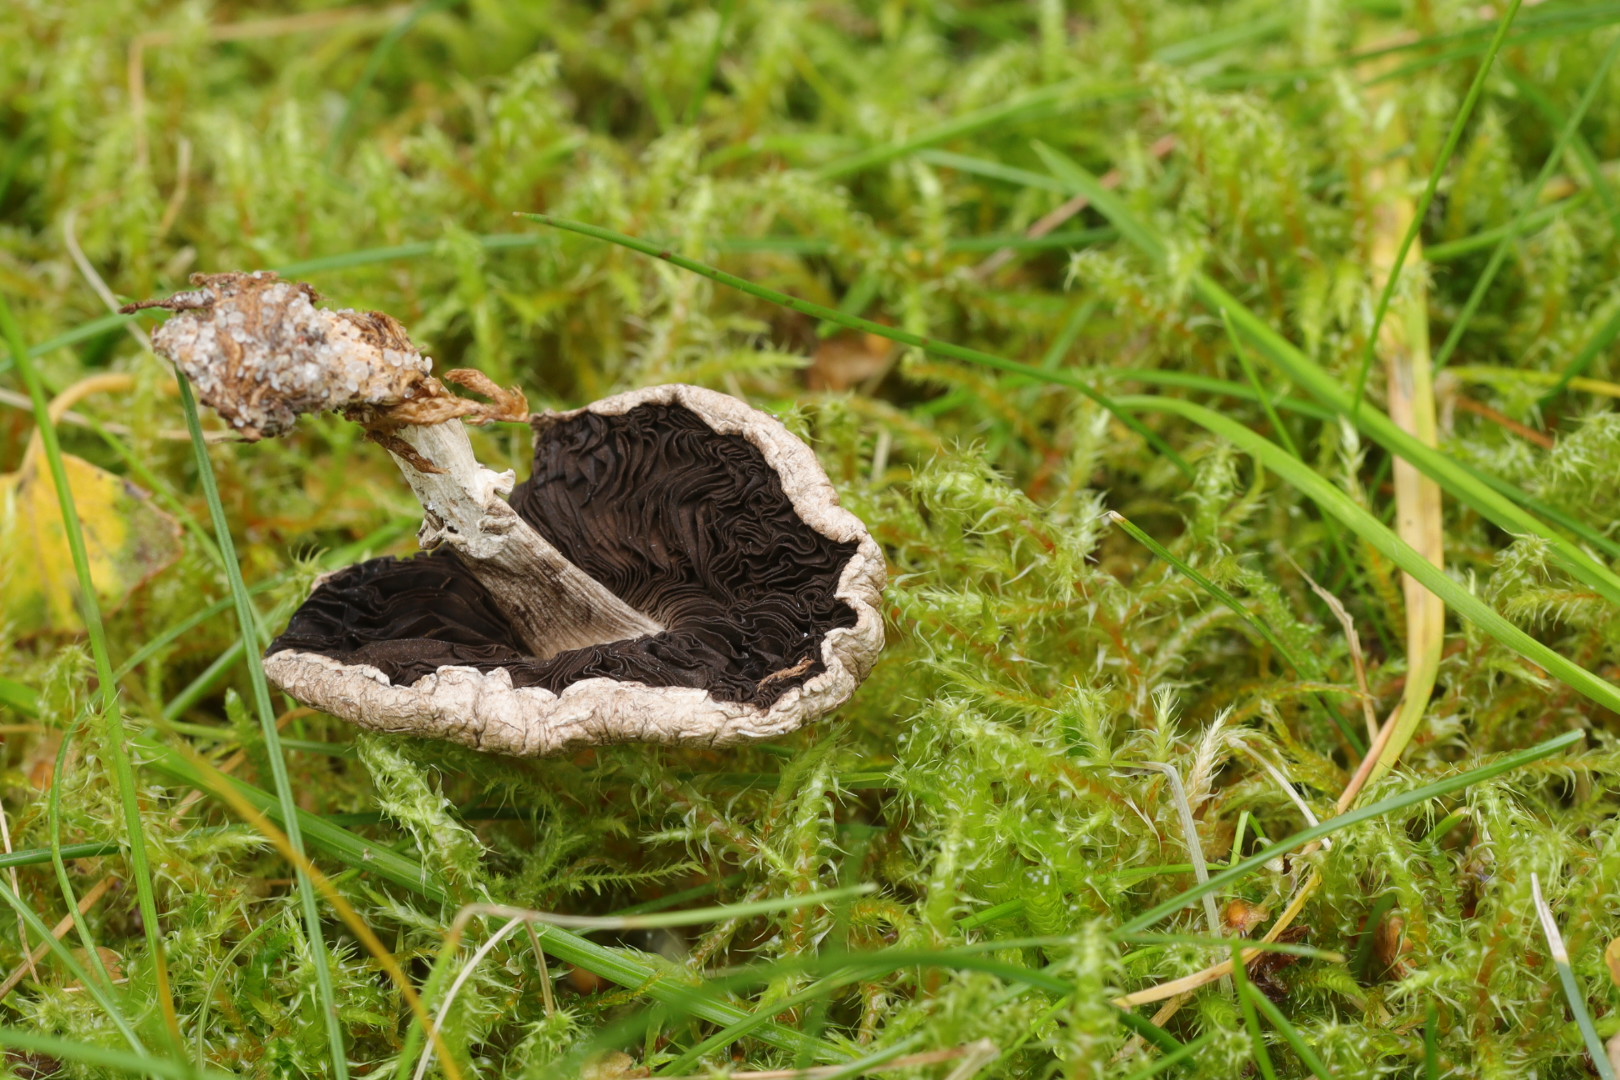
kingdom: Fungi
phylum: Basidiomycota
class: Agaricomycetes
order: Agaricales
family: Agaricaceae
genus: Agaricus
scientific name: Agaricus
